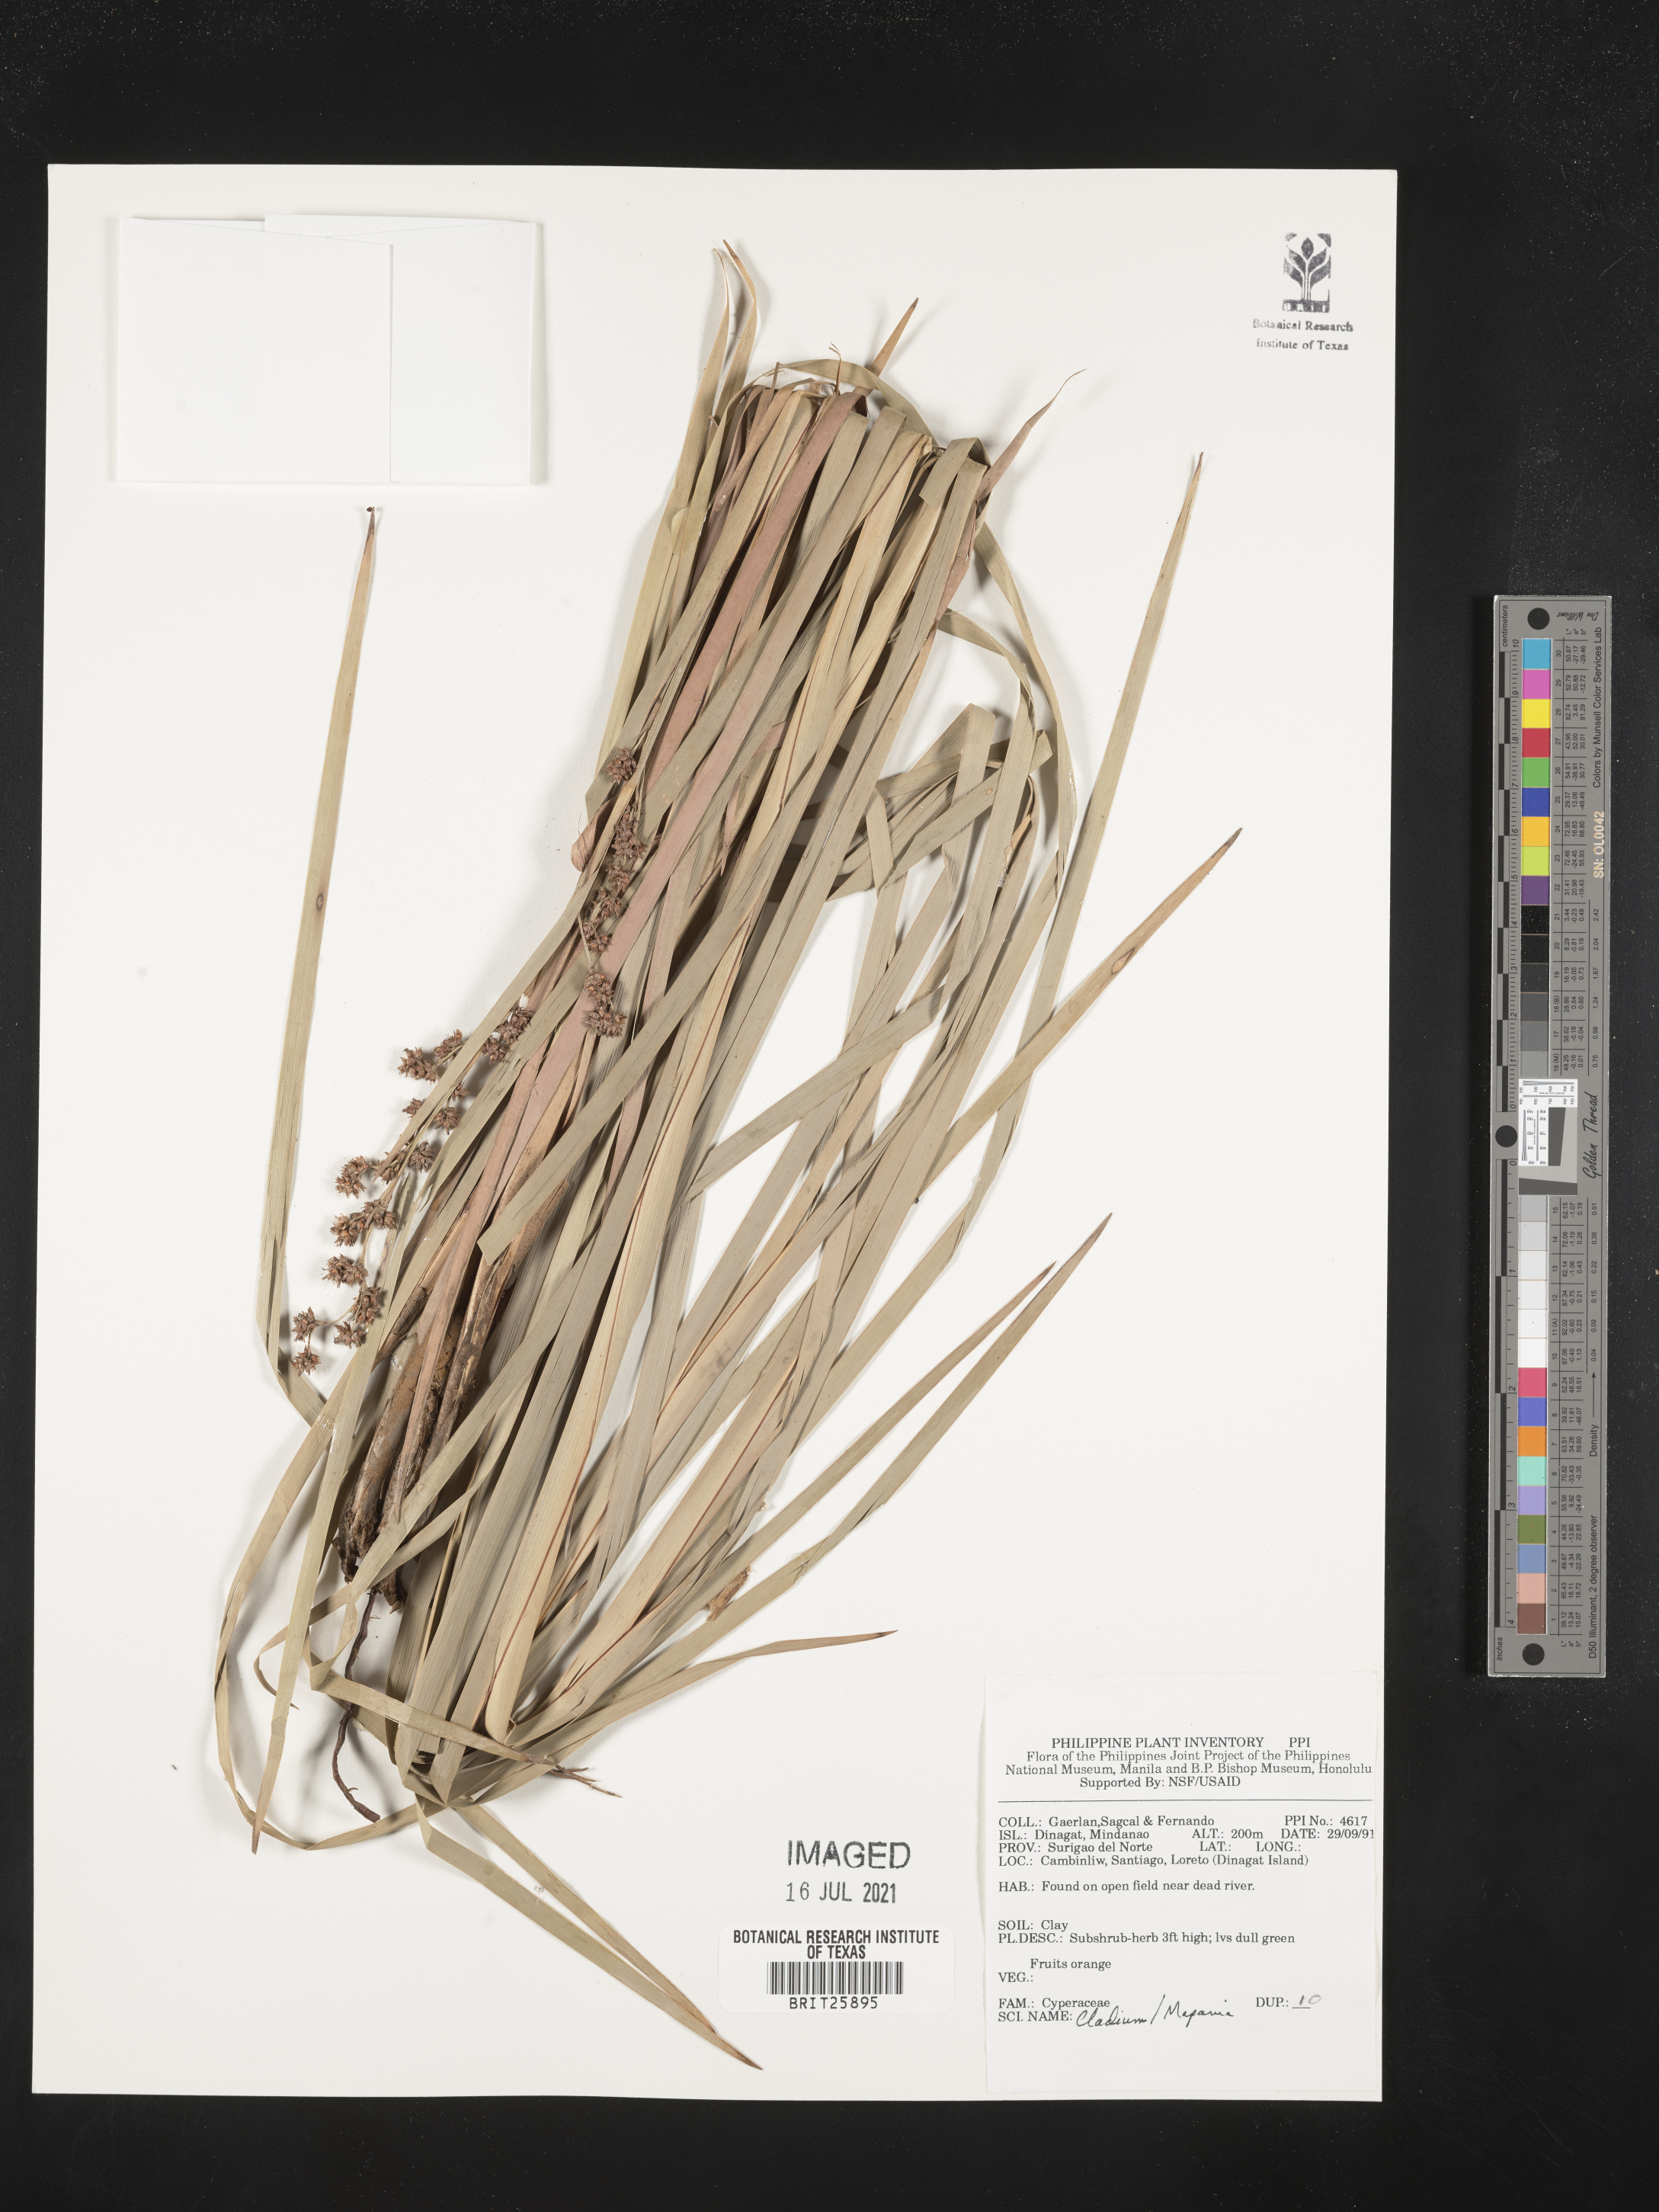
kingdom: Plantae
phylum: Tracheophyta
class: Liliopsida
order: Poales
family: Cyperaceae
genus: Cladium
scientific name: Cladium
